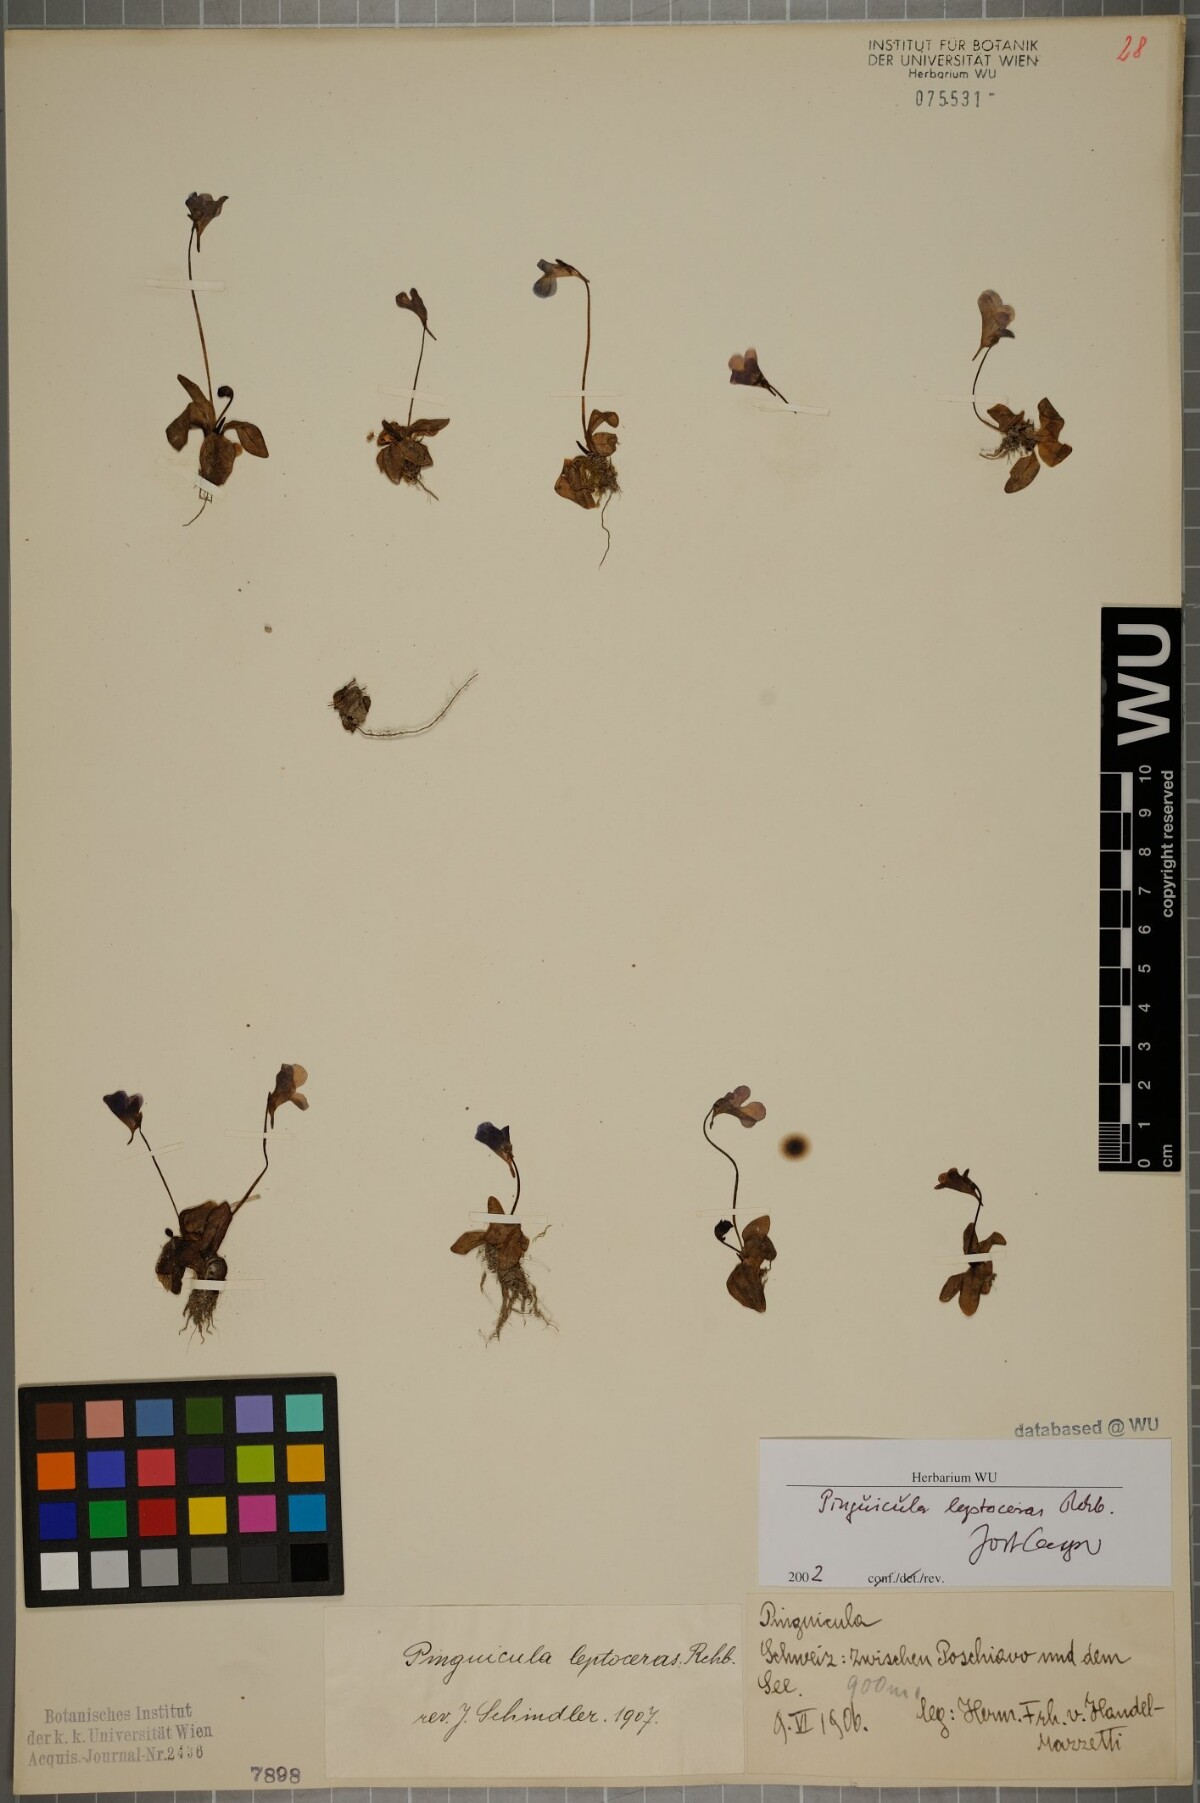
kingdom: Plantae
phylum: Tracheophyta
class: Magnoliopsida
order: Lamiales
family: Lentibulariaceae
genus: Pinguicula
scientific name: Pinguicula leptoceras
